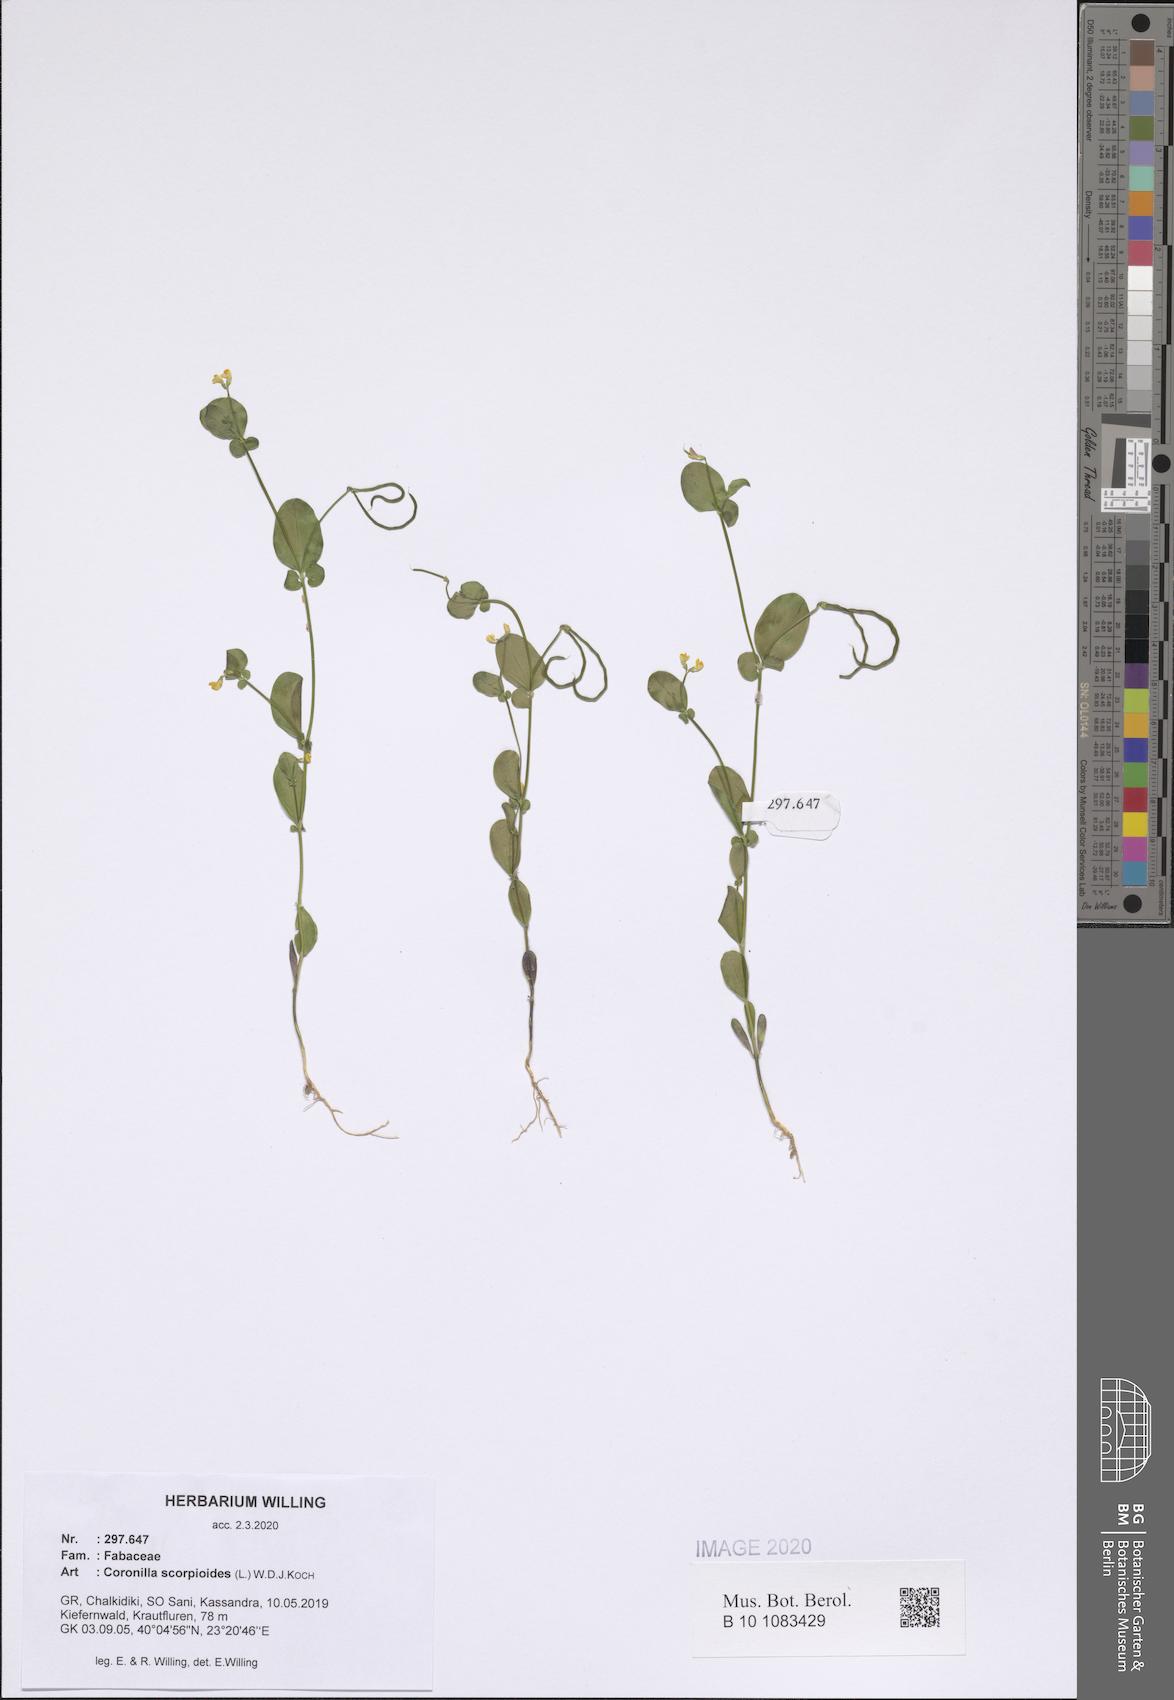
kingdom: Plantae
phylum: Tracheophyta
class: Magnoliopsida
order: Fabales
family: Fabaceae
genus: Coronilla
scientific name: Coronilla scorpioides
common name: Annual scorpion-vetch
